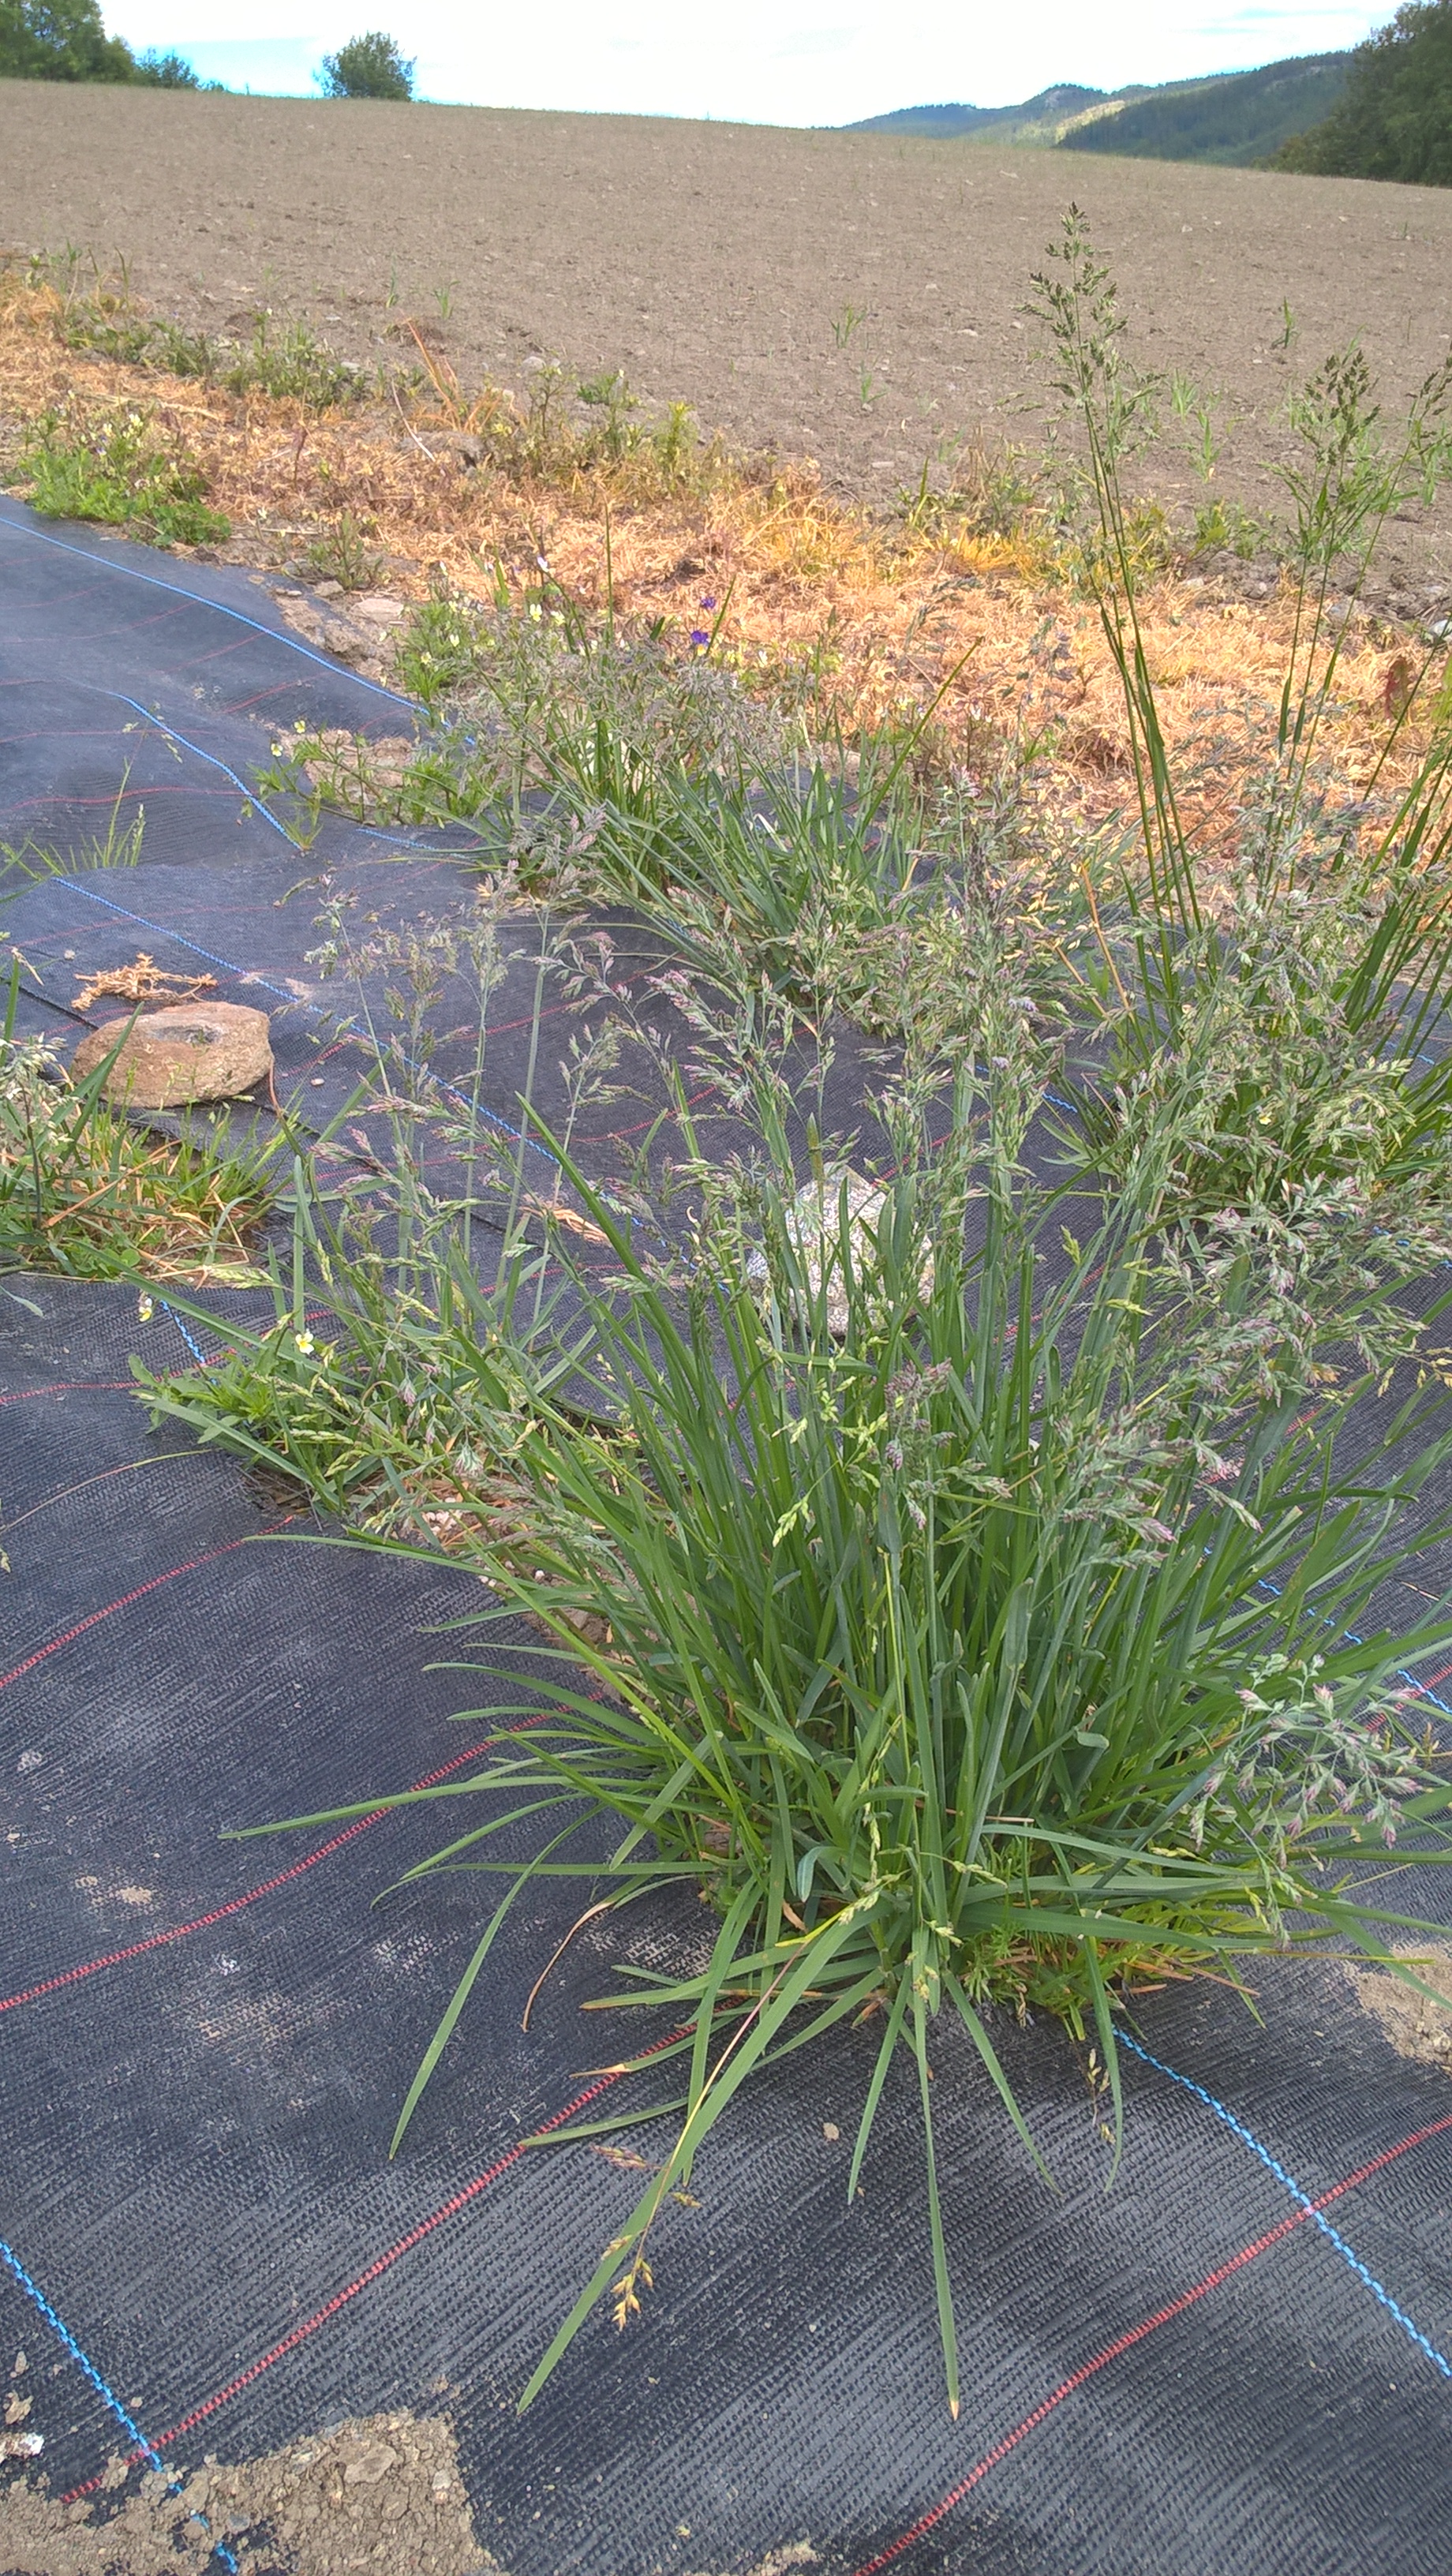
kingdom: Plantae
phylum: Tracheophyta
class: Liliopsida
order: Poales
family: Poaceae
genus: Poa
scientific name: Poa pratensis
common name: Kentucky bluegrass
